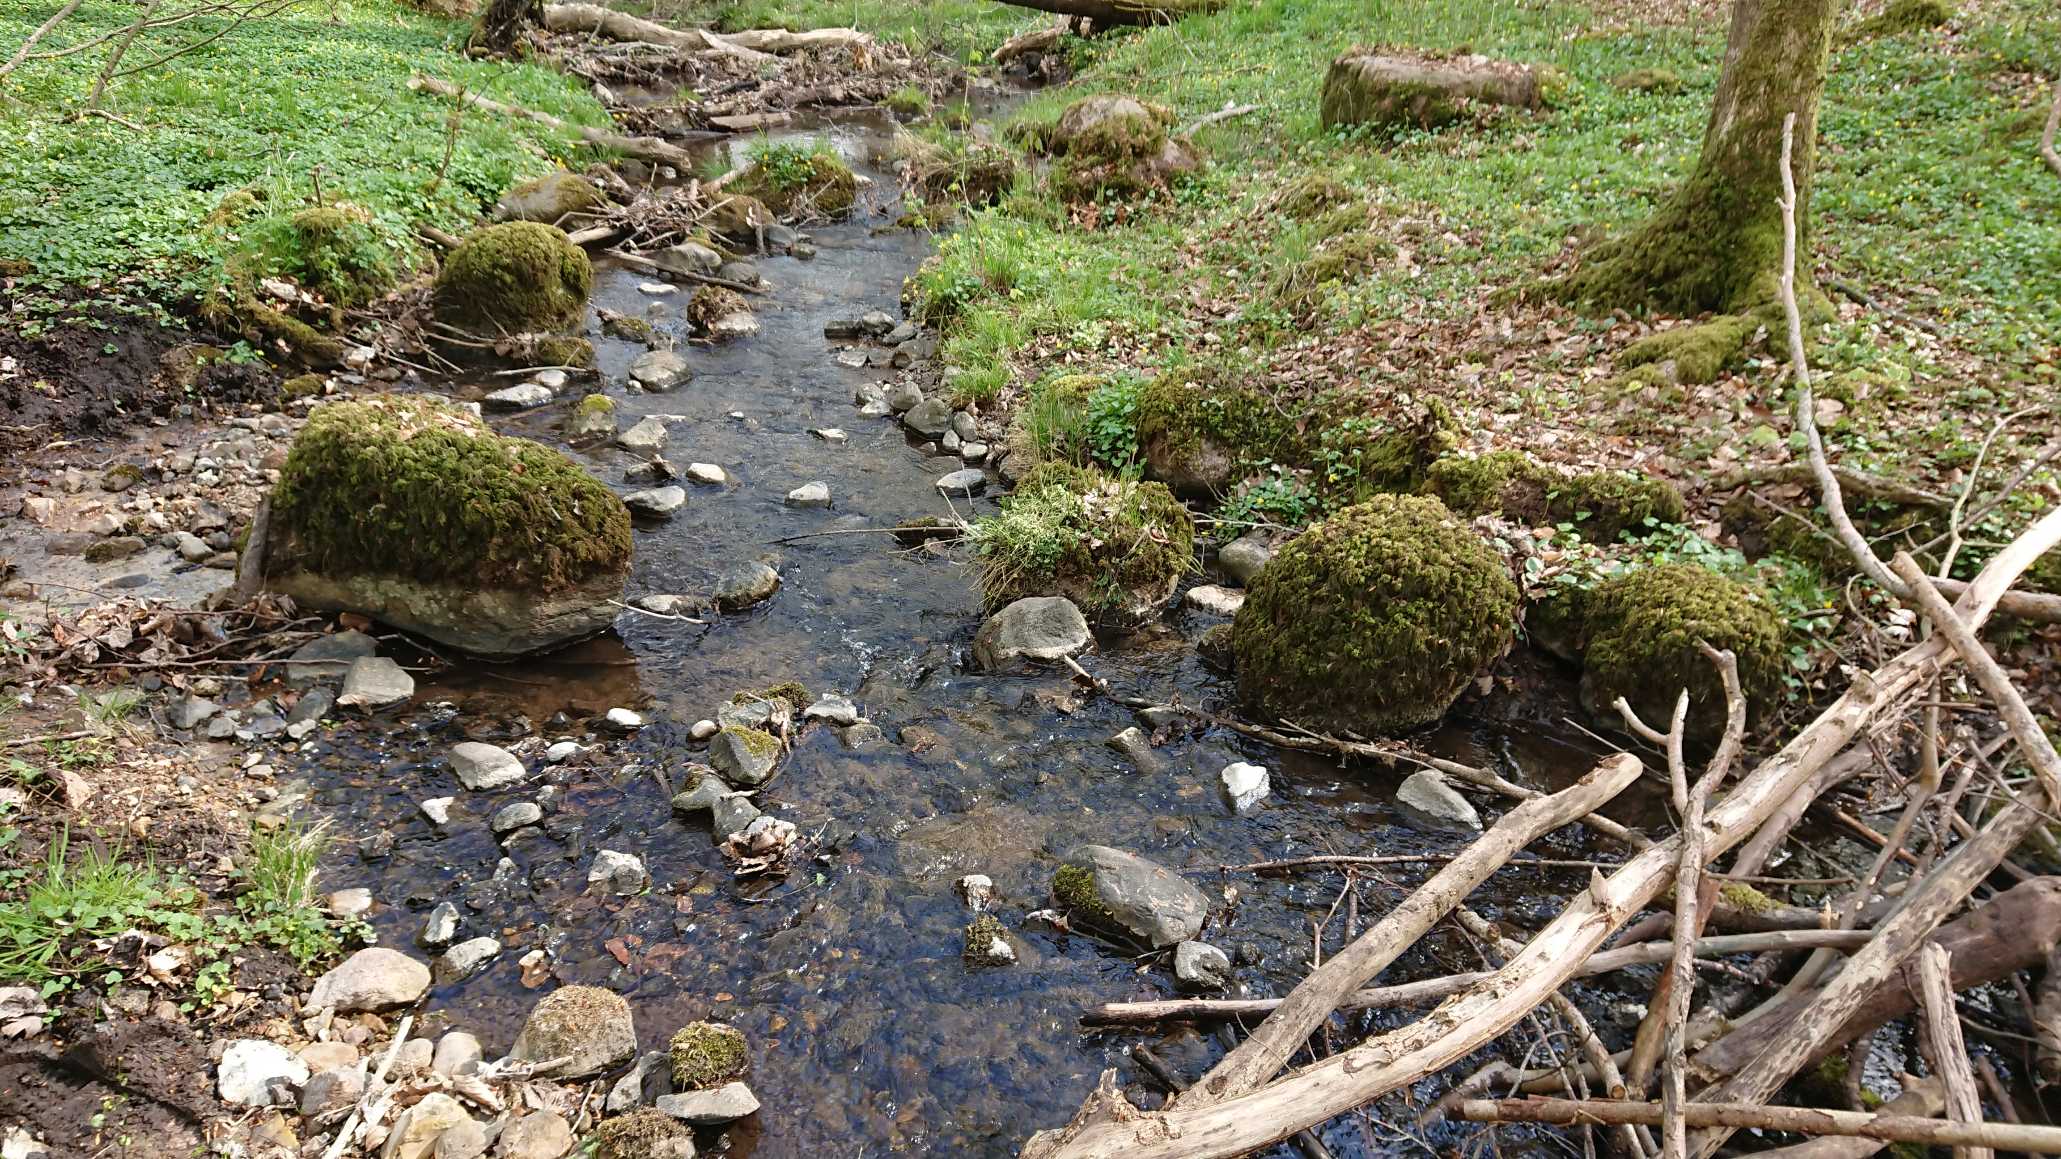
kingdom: Plantae
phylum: Bryophyta
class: Bryopsida
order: Hypnales
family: Neckeraceae
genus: Thamnobryum
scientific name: Thamnobryum alopecurum
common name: Mat bækkost
